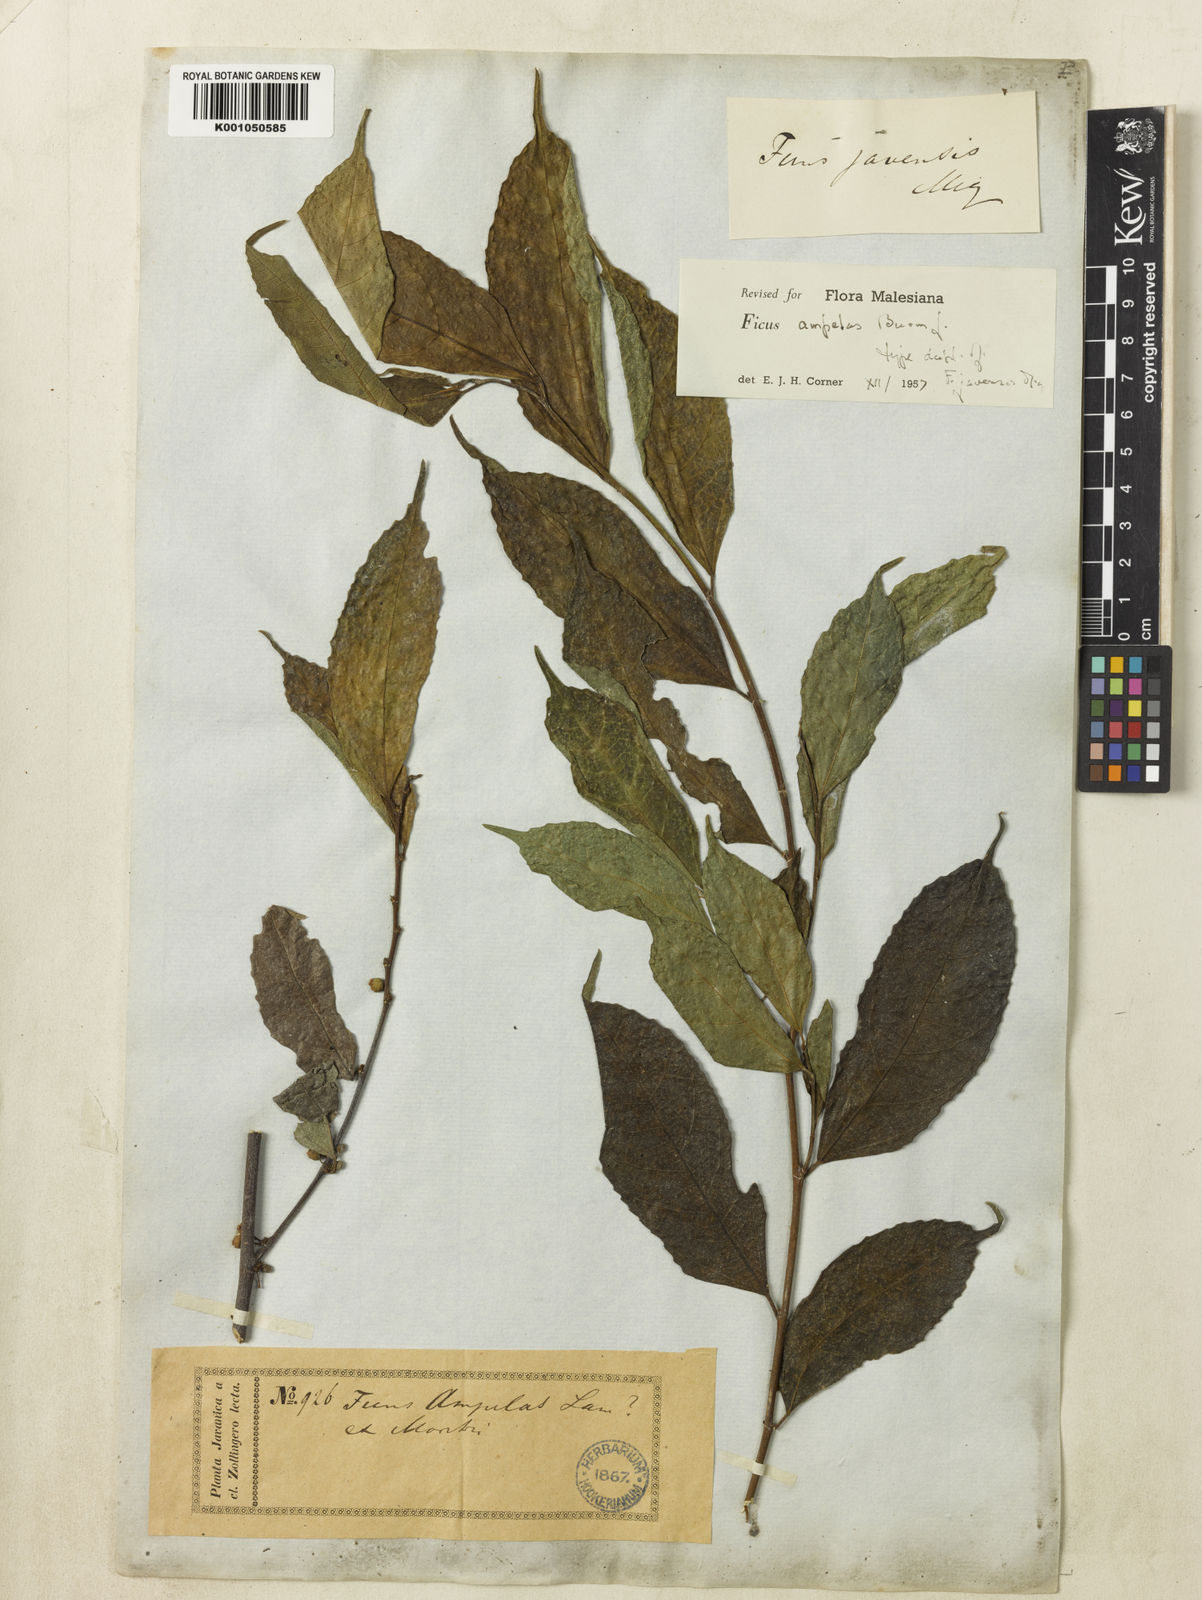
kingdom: Plantae
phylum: Tracheophyta
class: Magnoliopsida
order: Rosales
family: Moraceae
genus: Ficus
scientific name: Ficus
